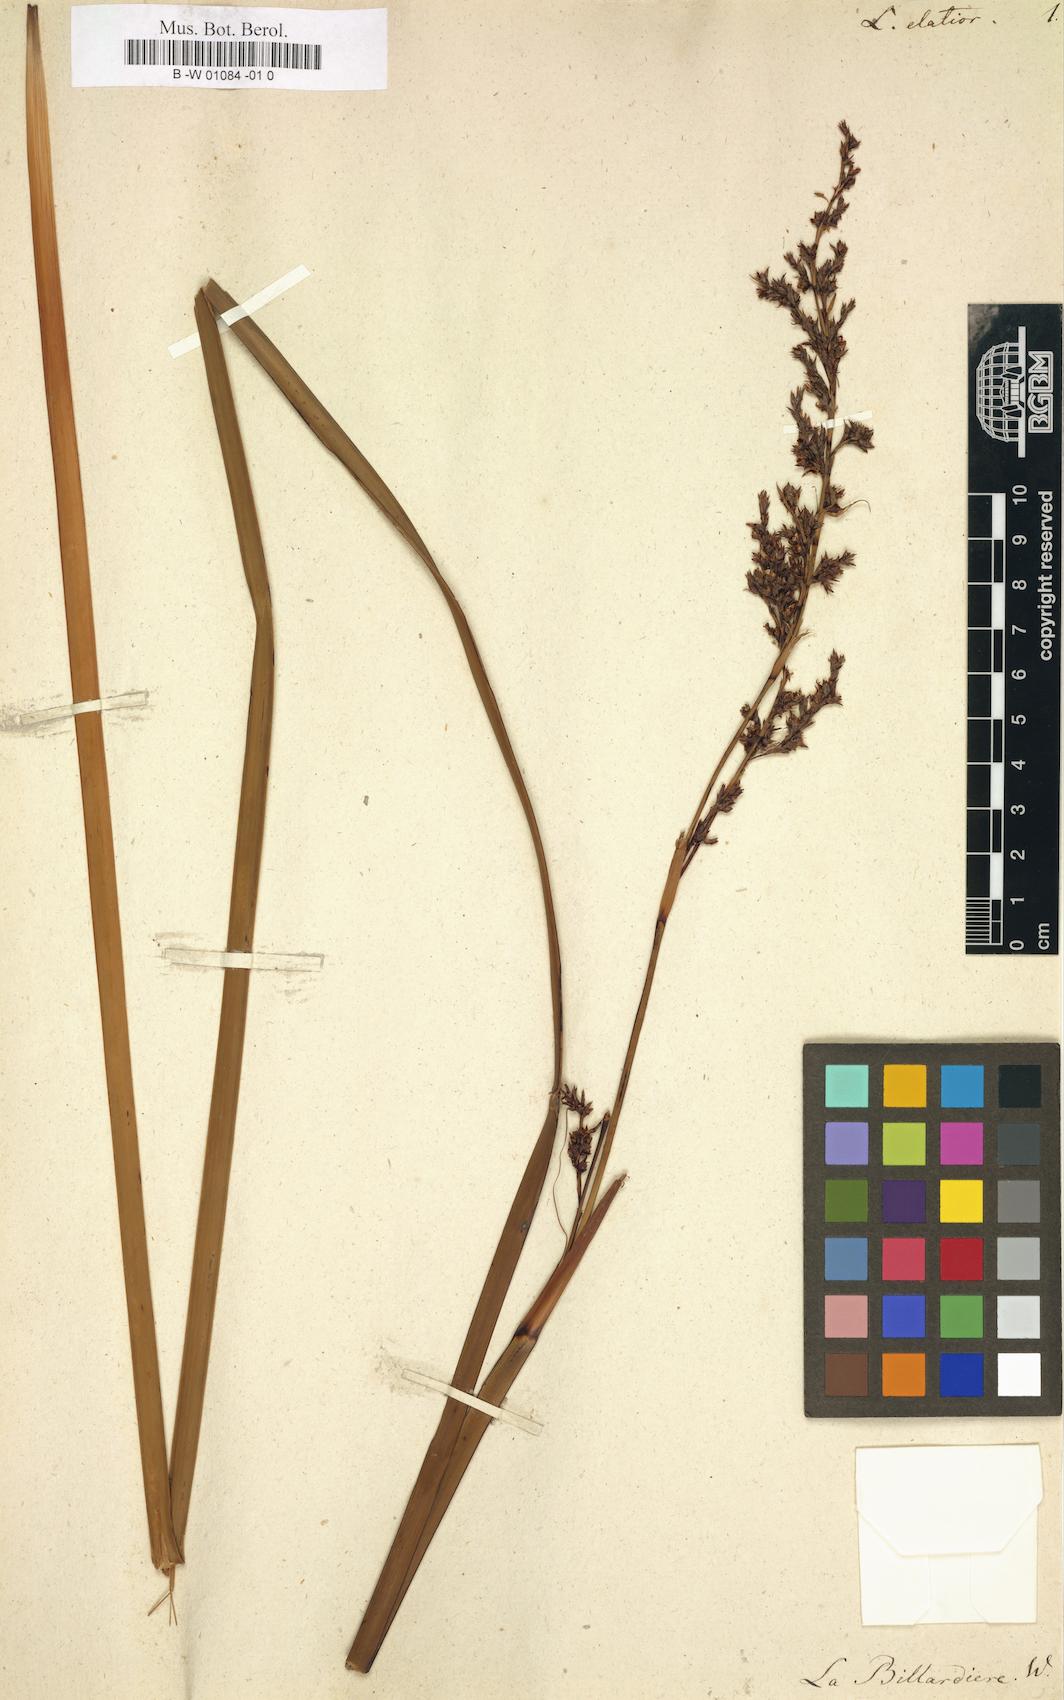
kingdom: Plantae
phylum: Tracheophyta
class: Liliopsida
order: Poales
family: Cyperaceae
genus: Lepidosperma
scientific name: Lepidosperma elatius
